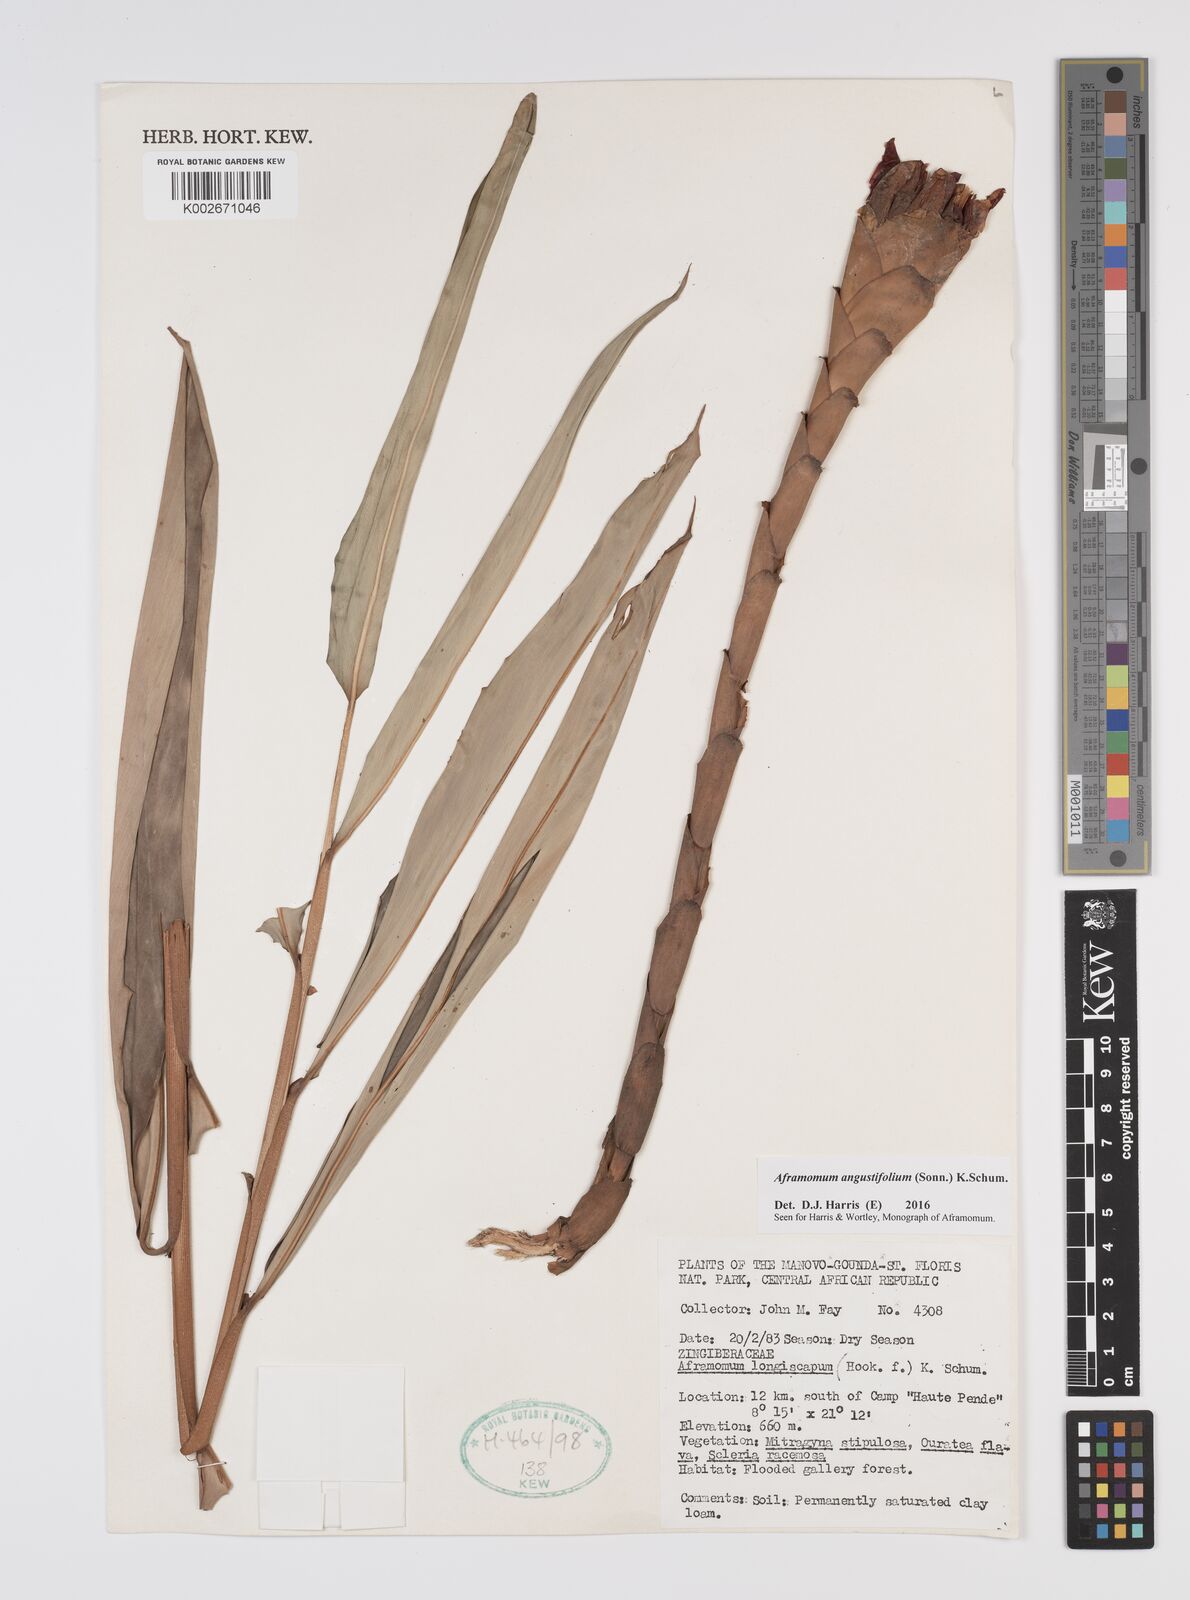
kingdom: Plantae
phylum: Tracheophyta
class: Liliopsida
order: Zingiberales
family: Zingiberaceae
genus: Aframomum
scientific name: Aframomum angustifolium
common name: Guinea grains
